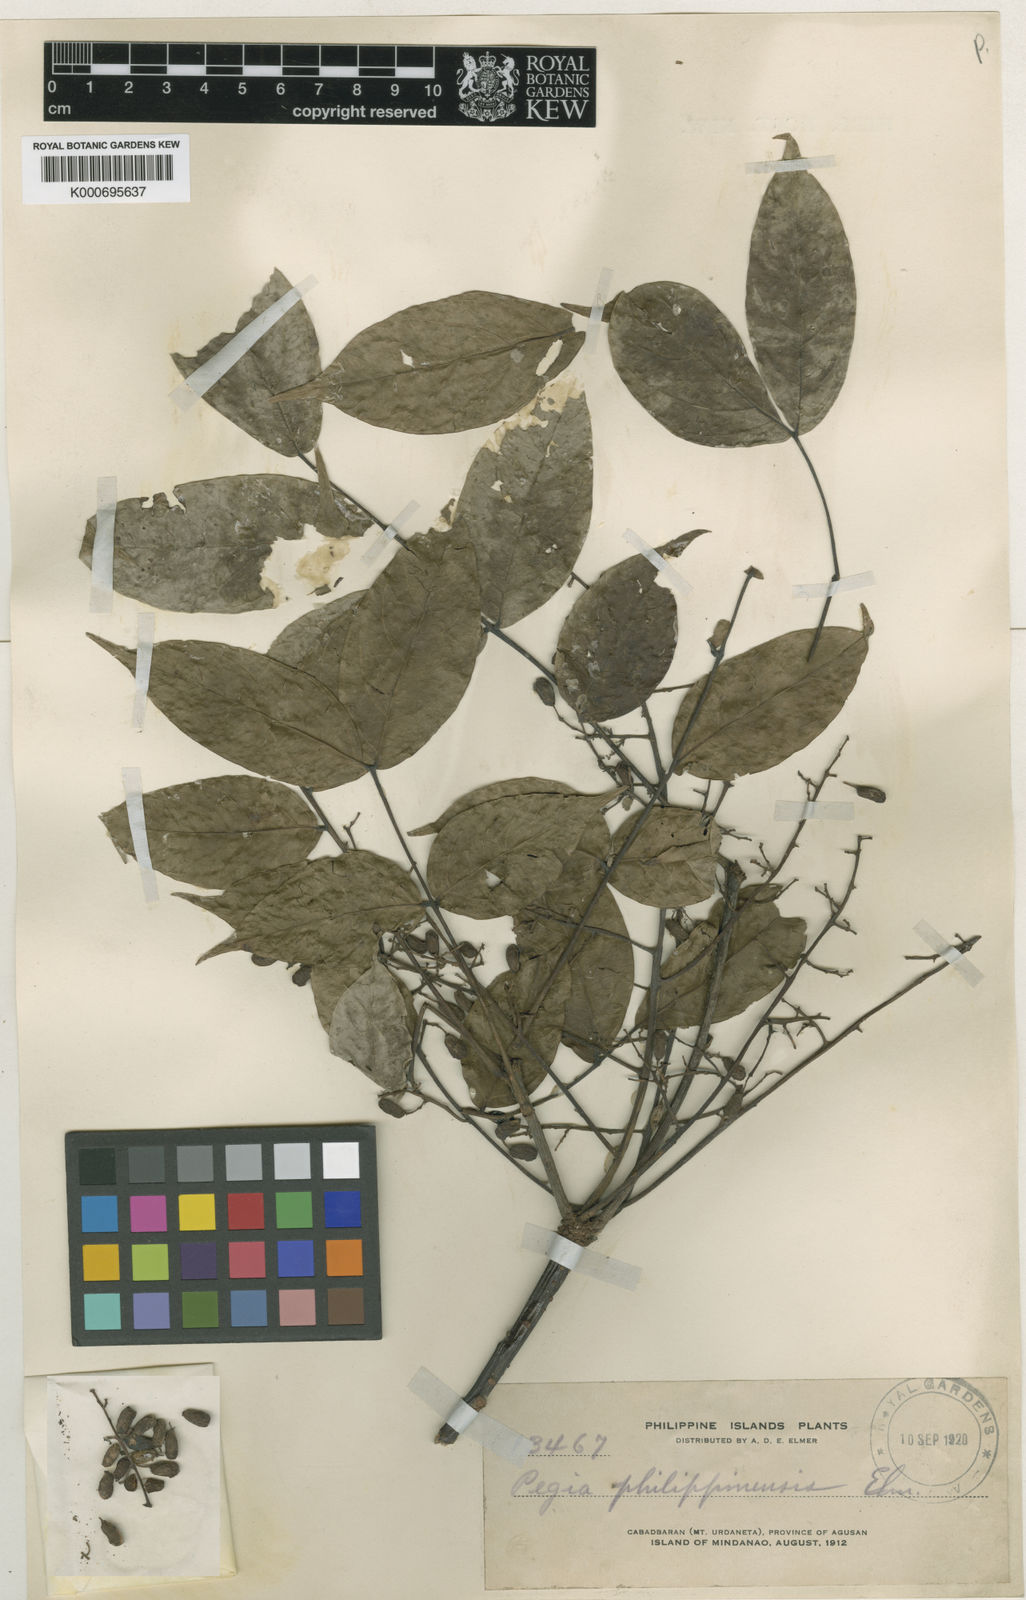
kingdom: Plantae
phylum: Tracheophyta
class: Magnoliopsida
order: Sapindales
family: Anacardiaceae
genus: Spondias
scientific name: Spondias philippinensis
